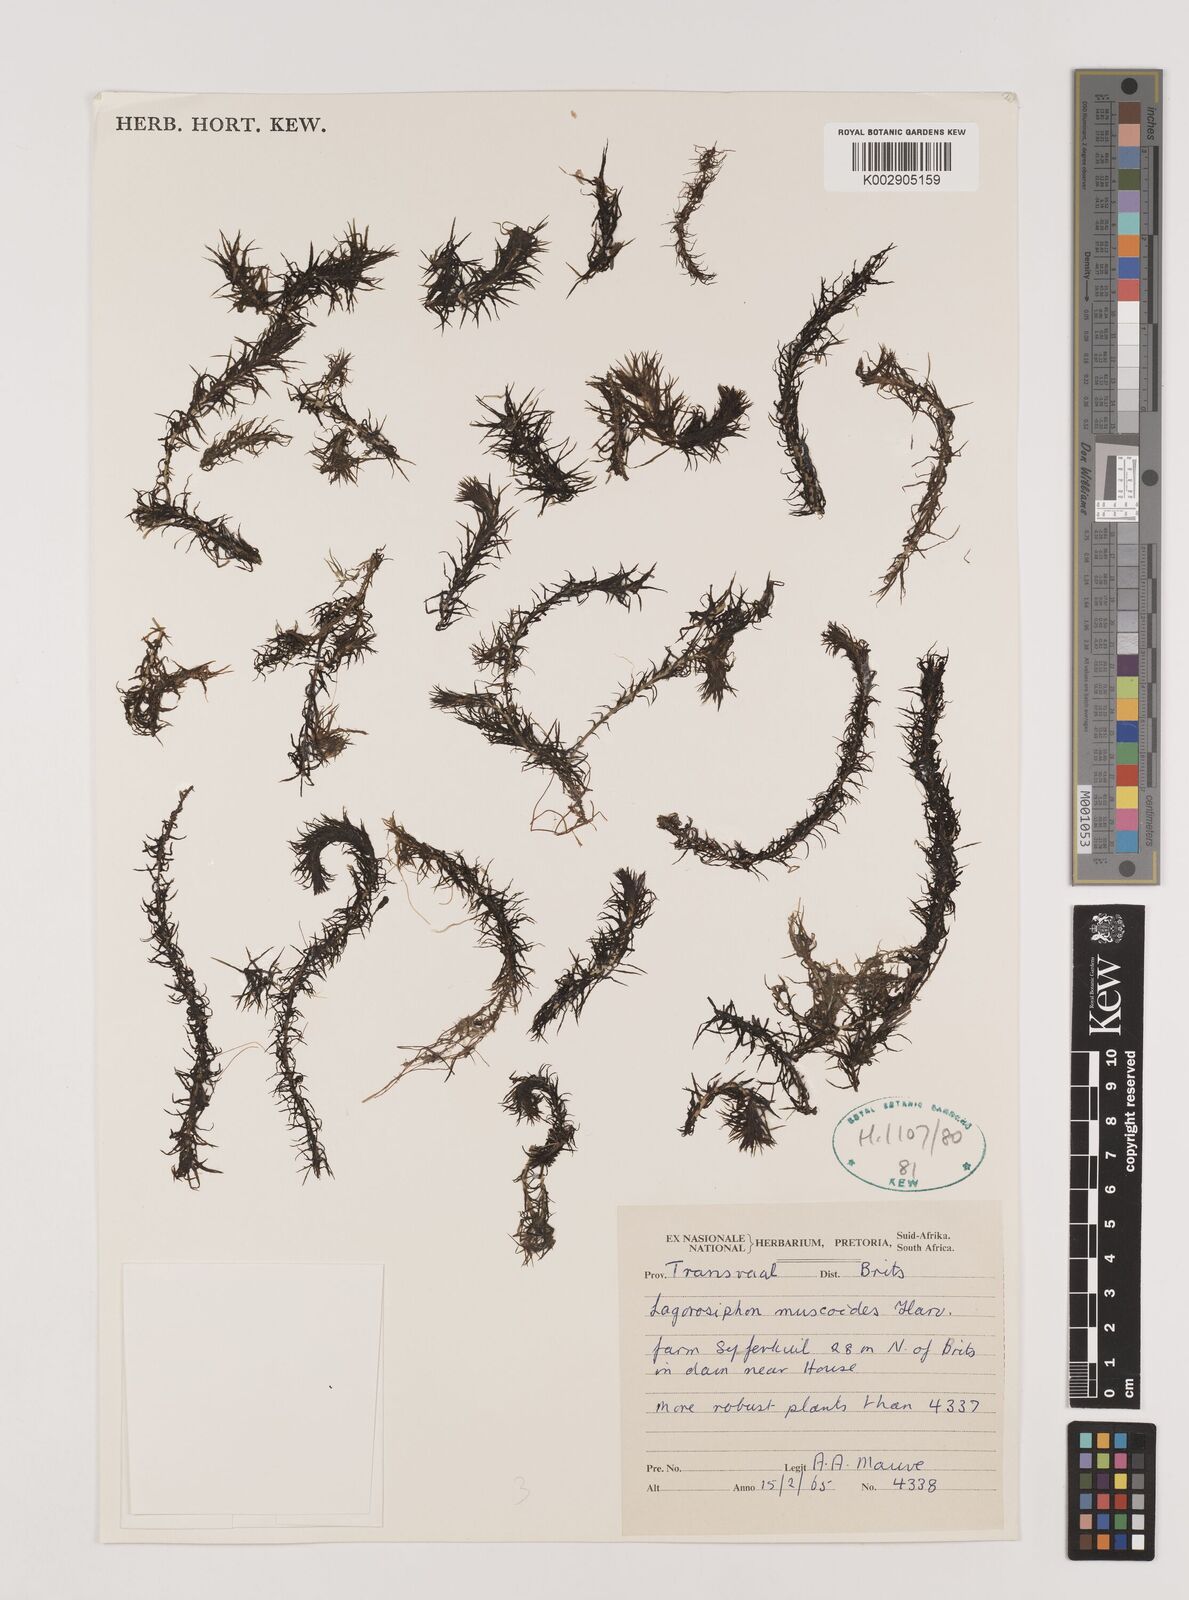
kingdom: Plantae
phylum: Tracheophyta
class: Liliopsida
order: Alismatales
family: Hydrocharitaceae
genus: Lagarosiphon
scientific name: Lagarosiphon muscoides
